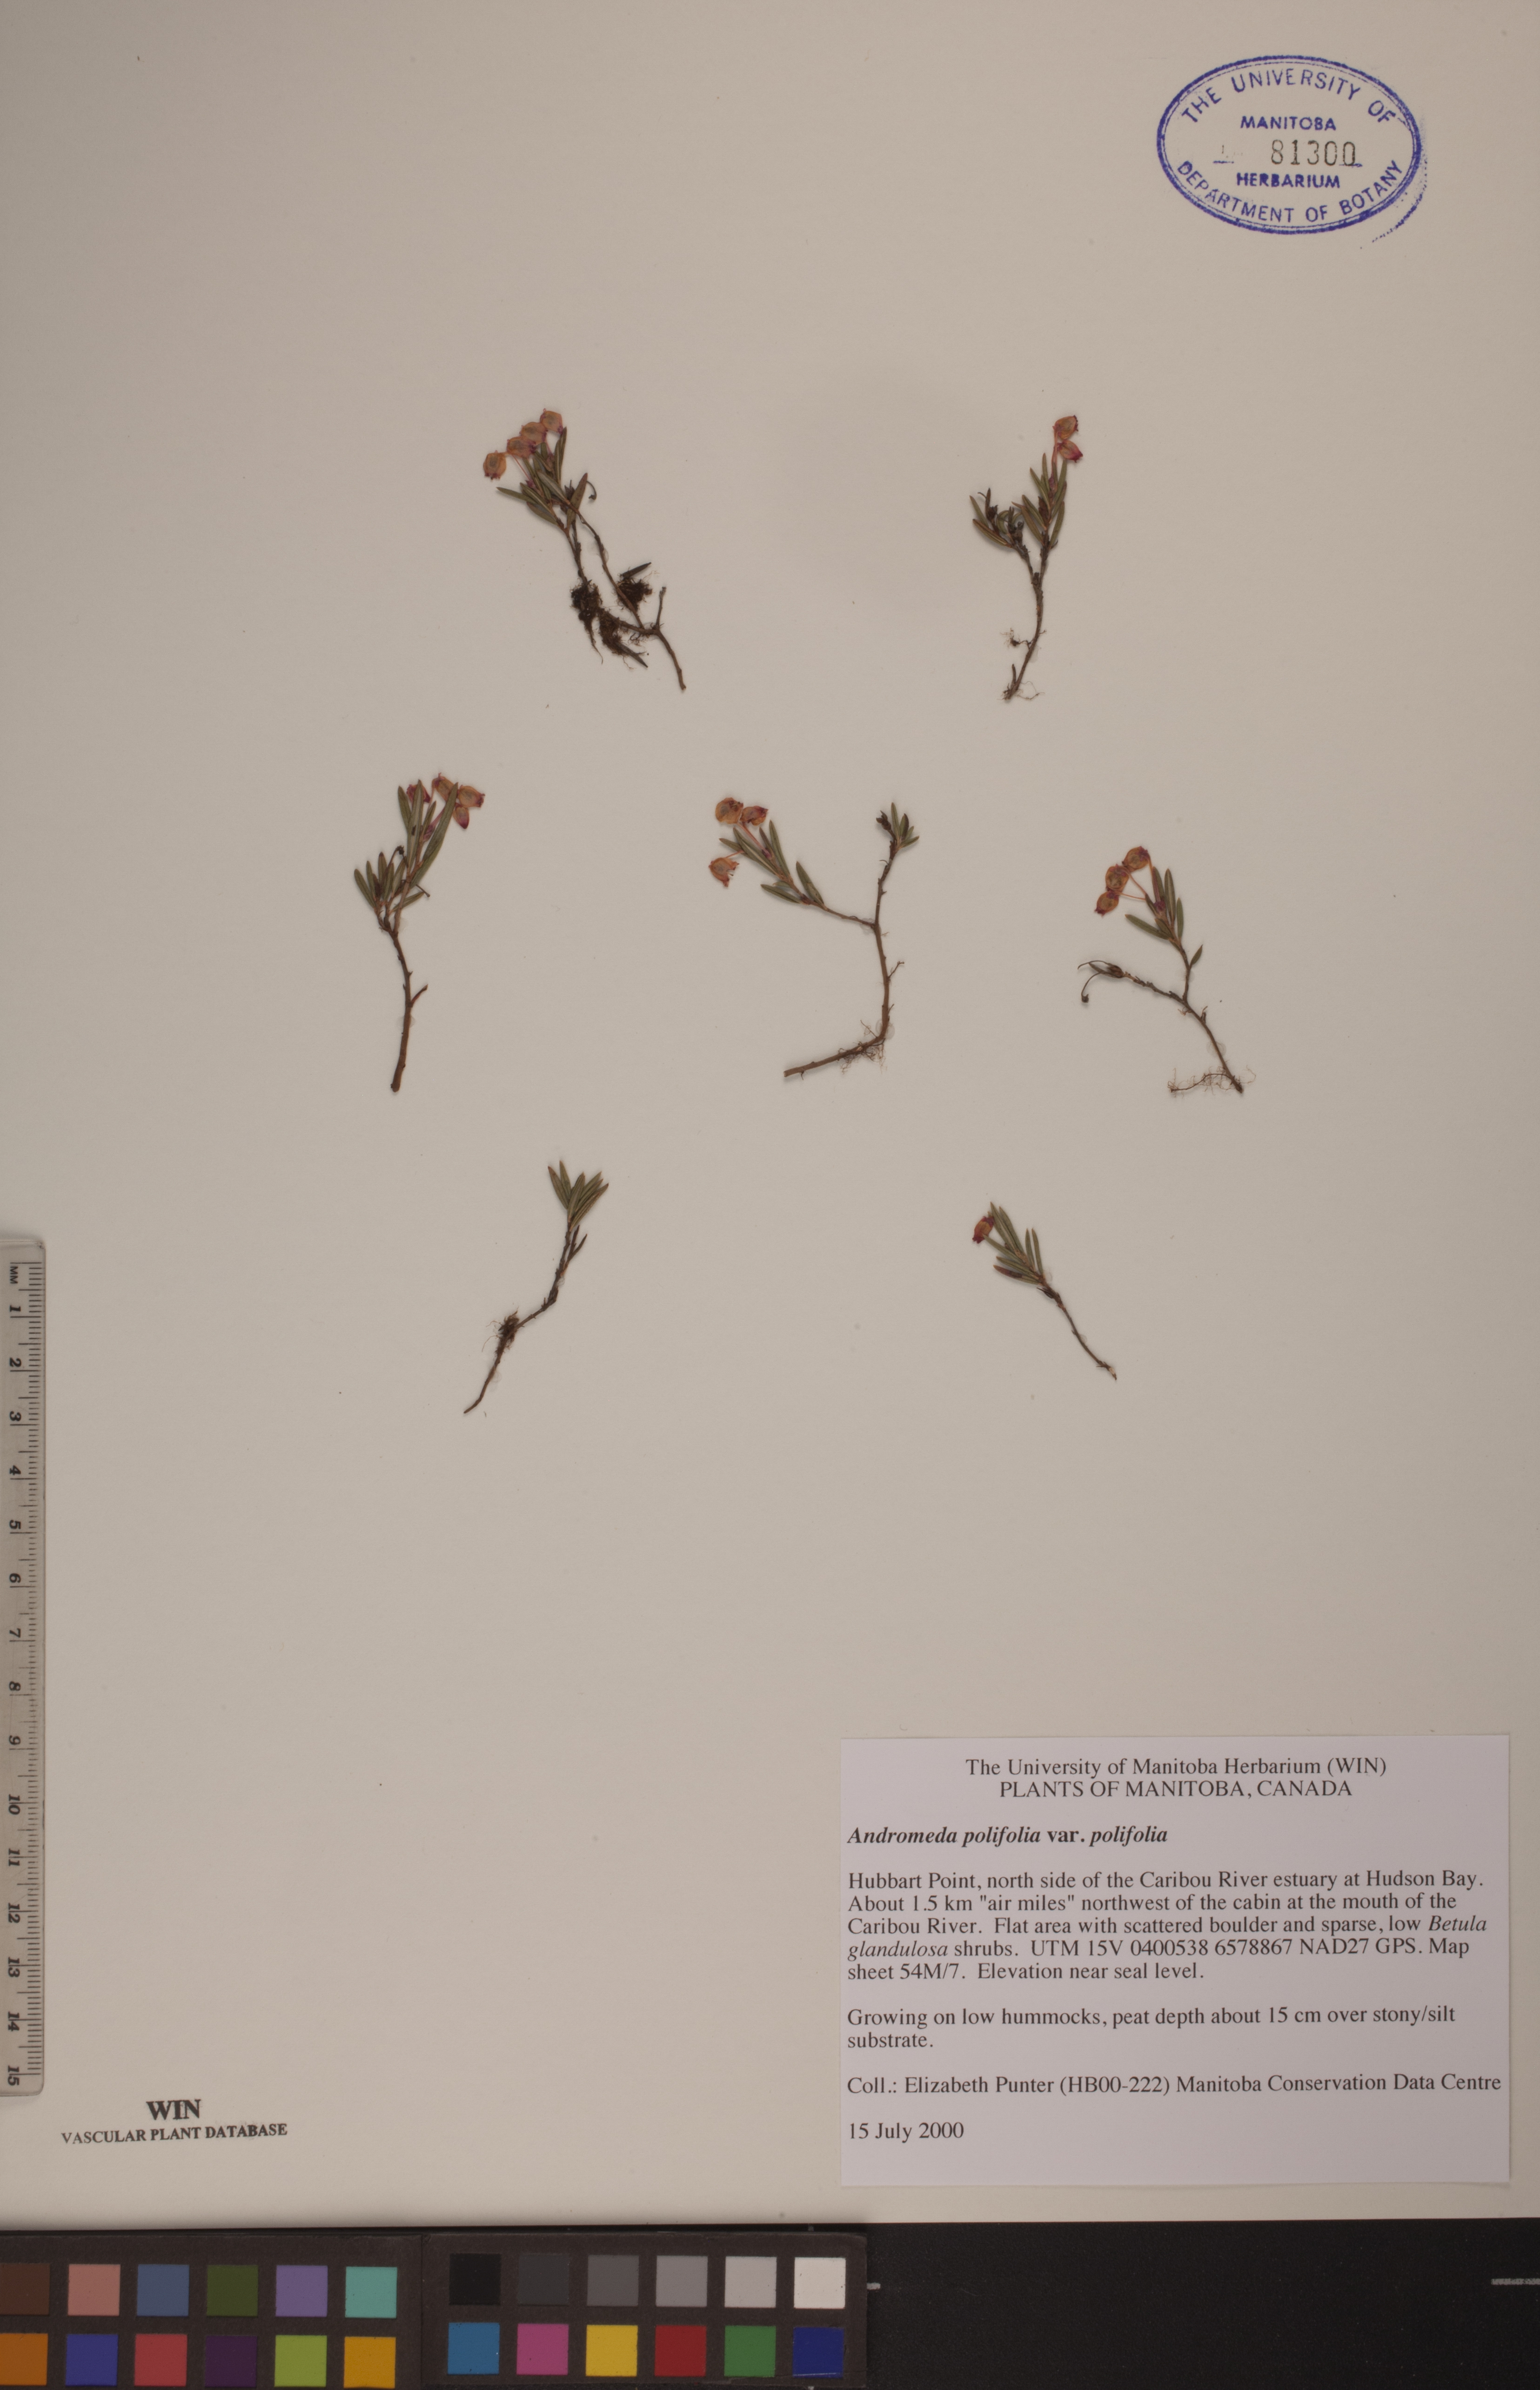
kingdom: Plantae
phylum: Tracheophyta
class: Magnoliopsida
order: Ericales
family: Ericaceae
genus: Andromeda
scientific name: Andromeda polifolia
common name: Bog-rosemary
